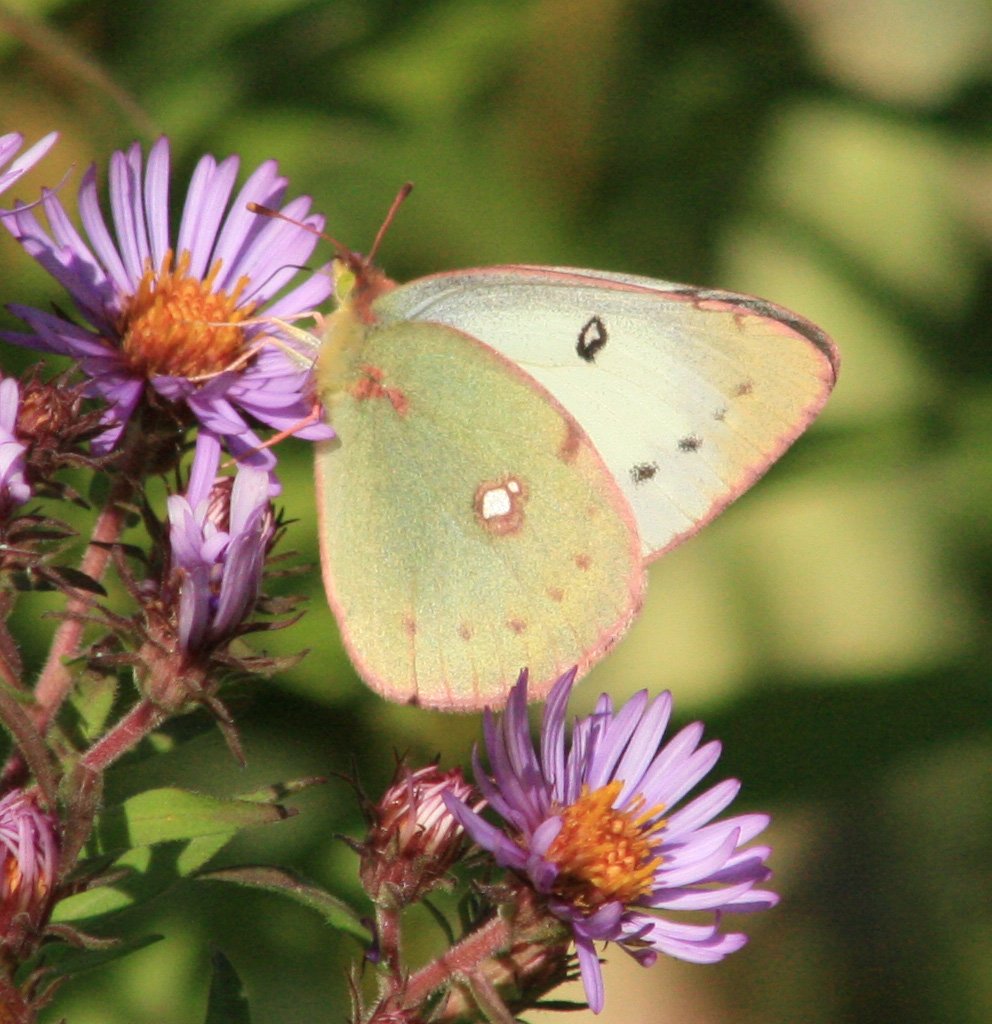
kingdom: Animalia
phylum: Arthropoda
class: Insecta
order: Lepidoptera
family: Pieridae
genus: Colias
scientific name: Colias philodice
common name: Clouded Sulphur
